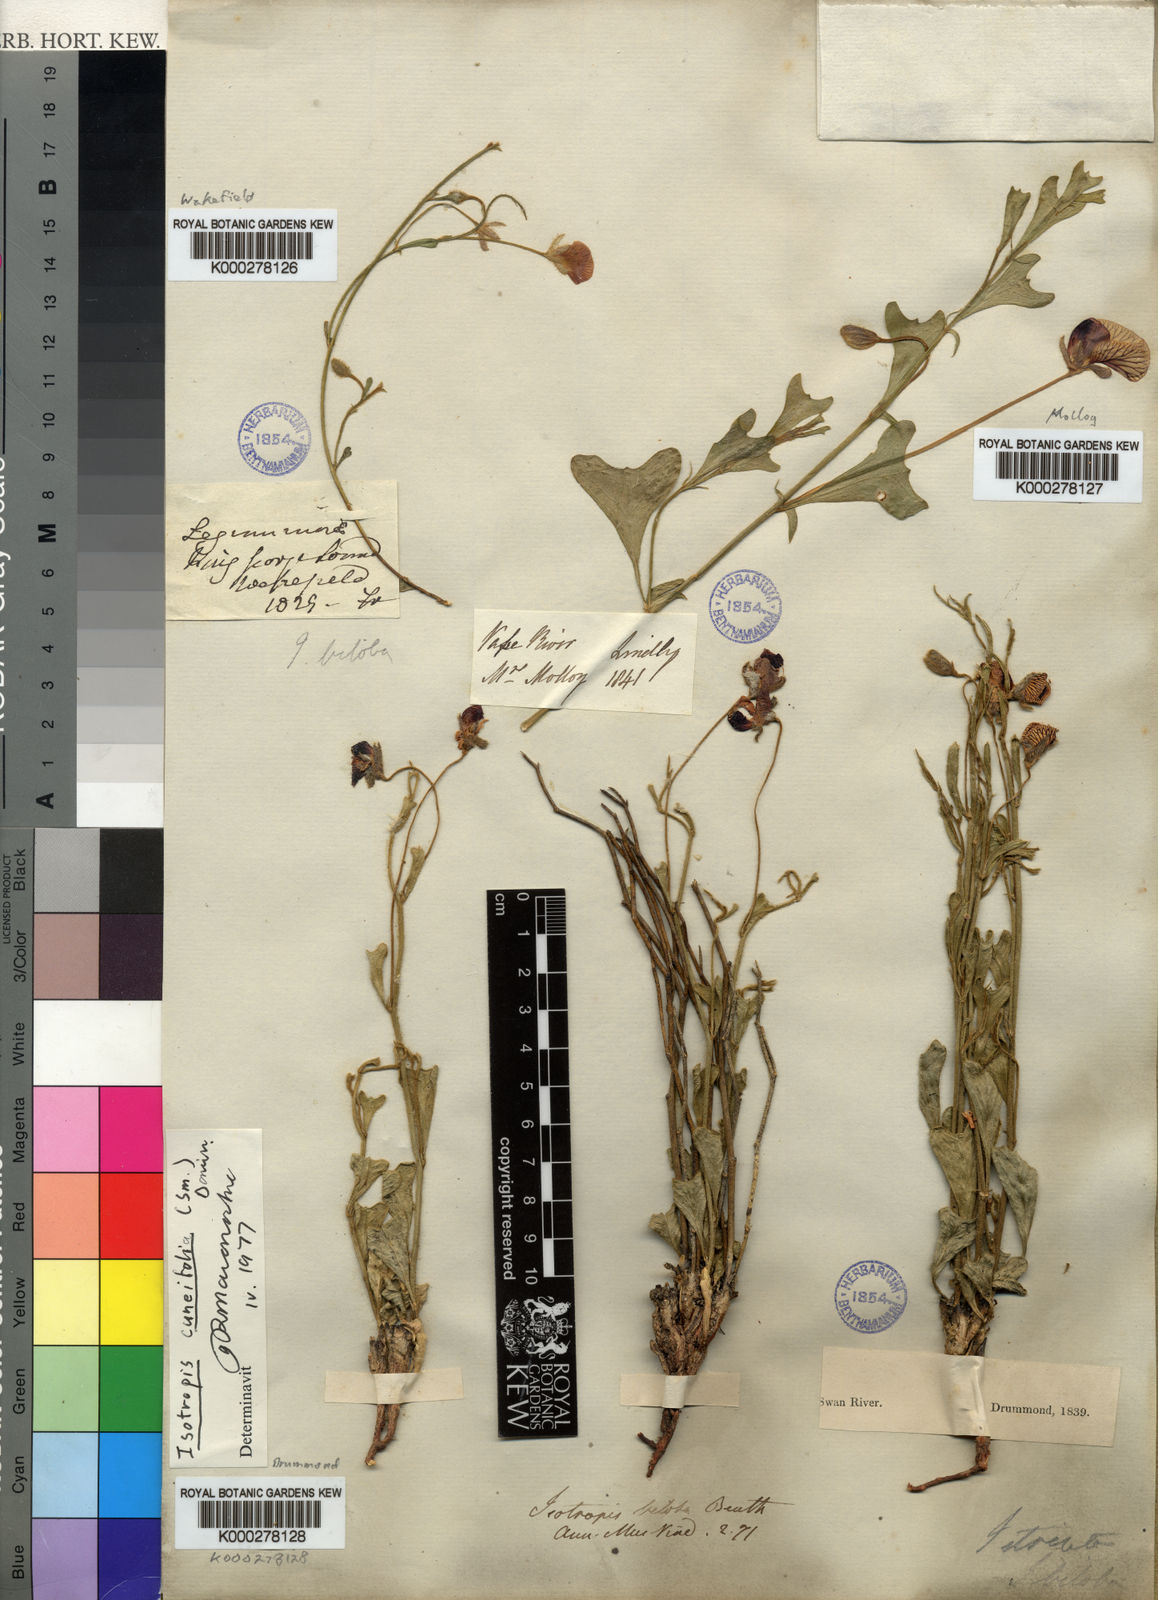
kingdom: Plantae
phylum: Tracheophyta
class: Magnoliopsida
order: Fabales
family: Fabaceae
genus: Isotropis
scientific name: Isotropis cuneifolia
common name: Granny bonnets
